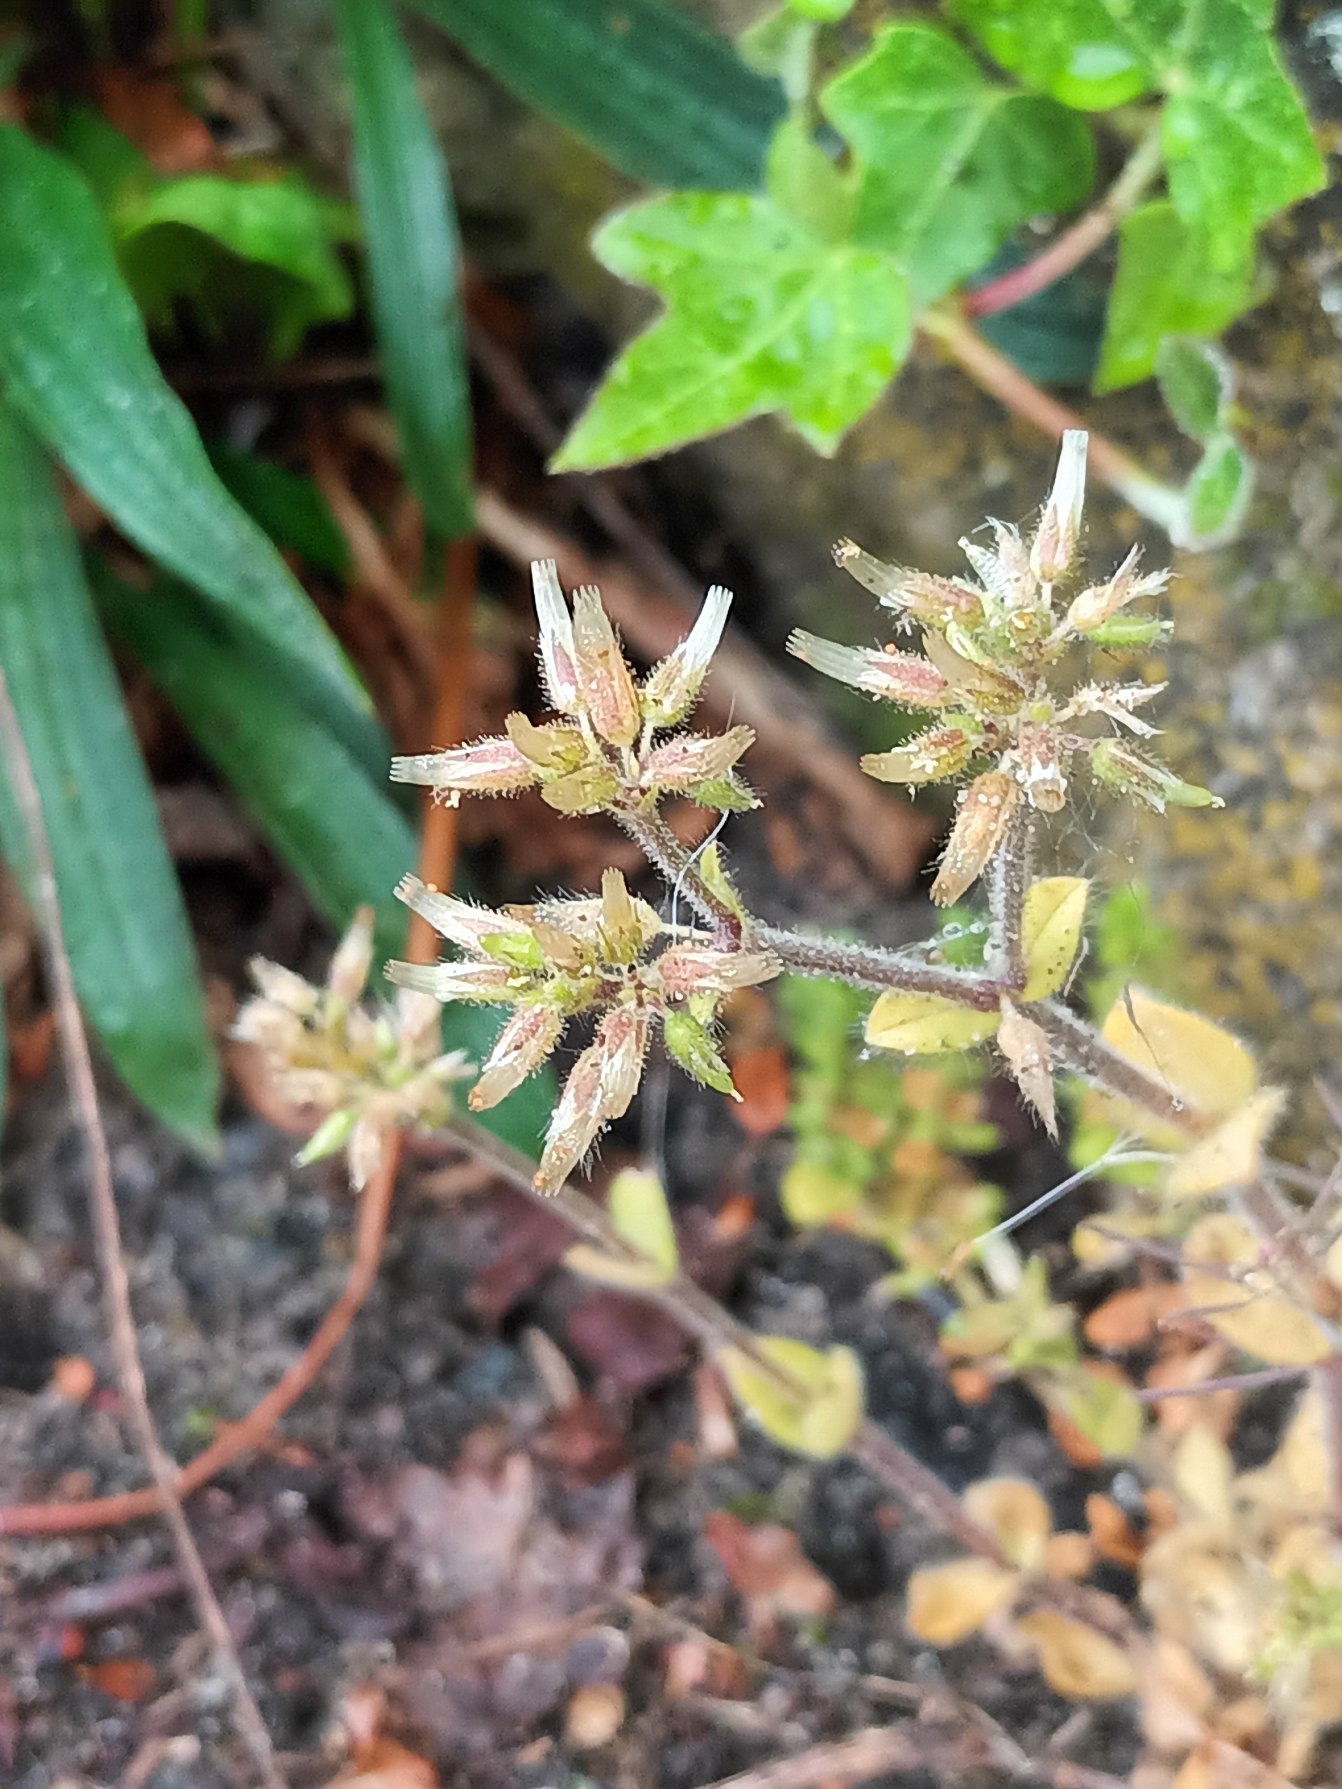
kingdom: Plantae
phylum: Tracheophyta
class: Magnoliopsida
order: Caryophyllales
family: Caryophyllaceae
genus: Cerastium
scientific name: Cerastium glomeratum
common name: Opret hønsetarm
